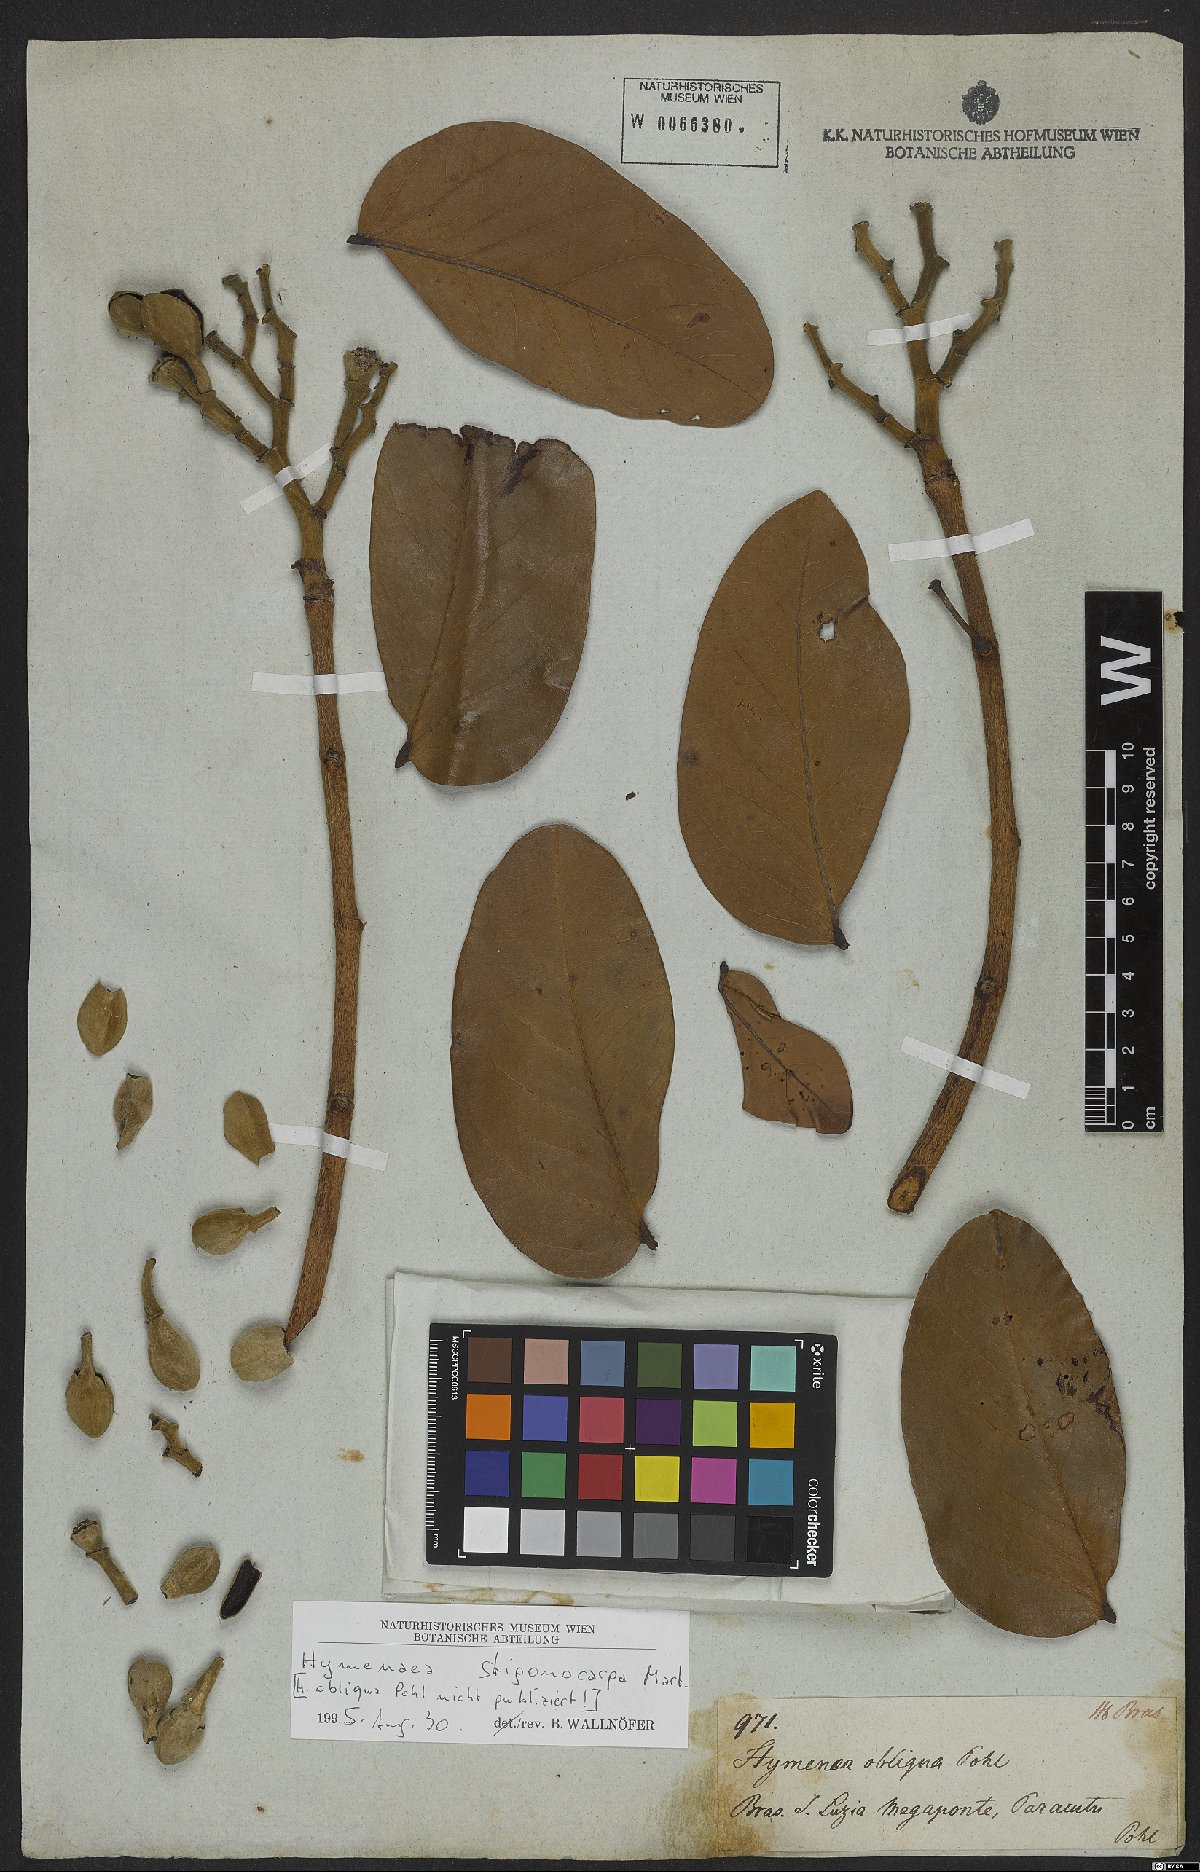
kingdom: Plantae
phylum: Tracheophyta
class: Magnoliopsida
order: Fabales
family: Fabaceae
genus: Hymenaea
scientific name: Hymenaea stigonocarpa
